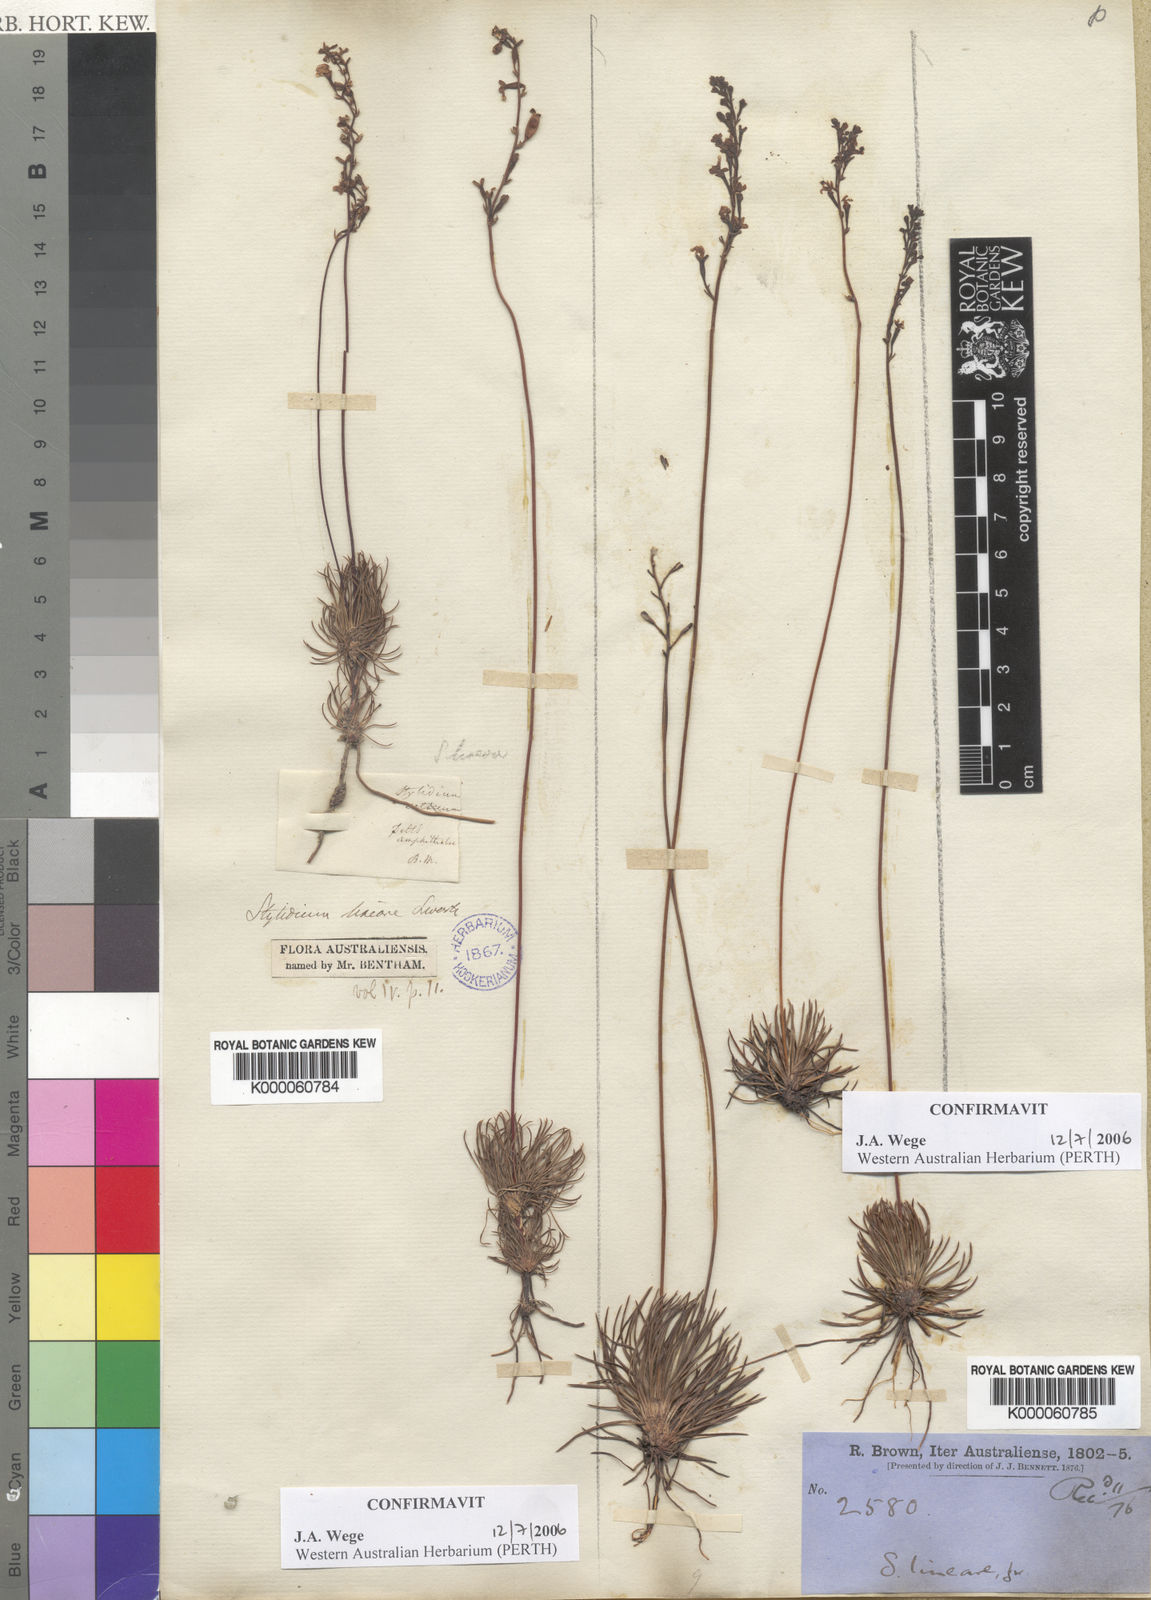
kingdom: Plantae
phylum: Tracheophyta
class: Magnoliopsida
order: Asterales
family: Stylidiaceae
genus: Stylidium
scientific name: Stylidium lineare
